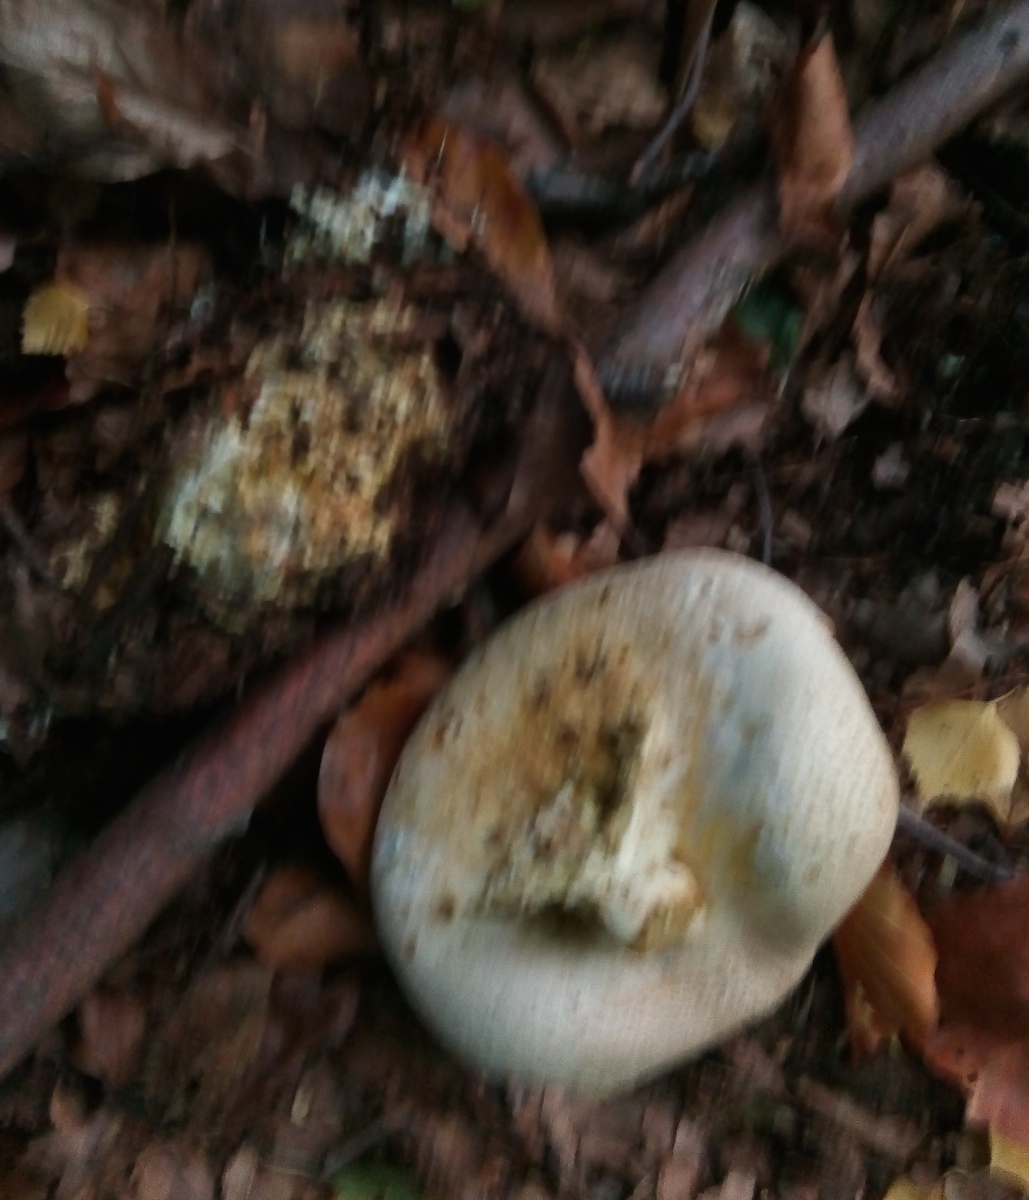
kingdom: Fungi
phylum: Basidiomycota
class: Agaricomycetes
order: Boletales
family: Sclerodermataceae
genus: Scleroderma
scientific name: Scleroderma citrinum
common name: almindelig bruskbold
